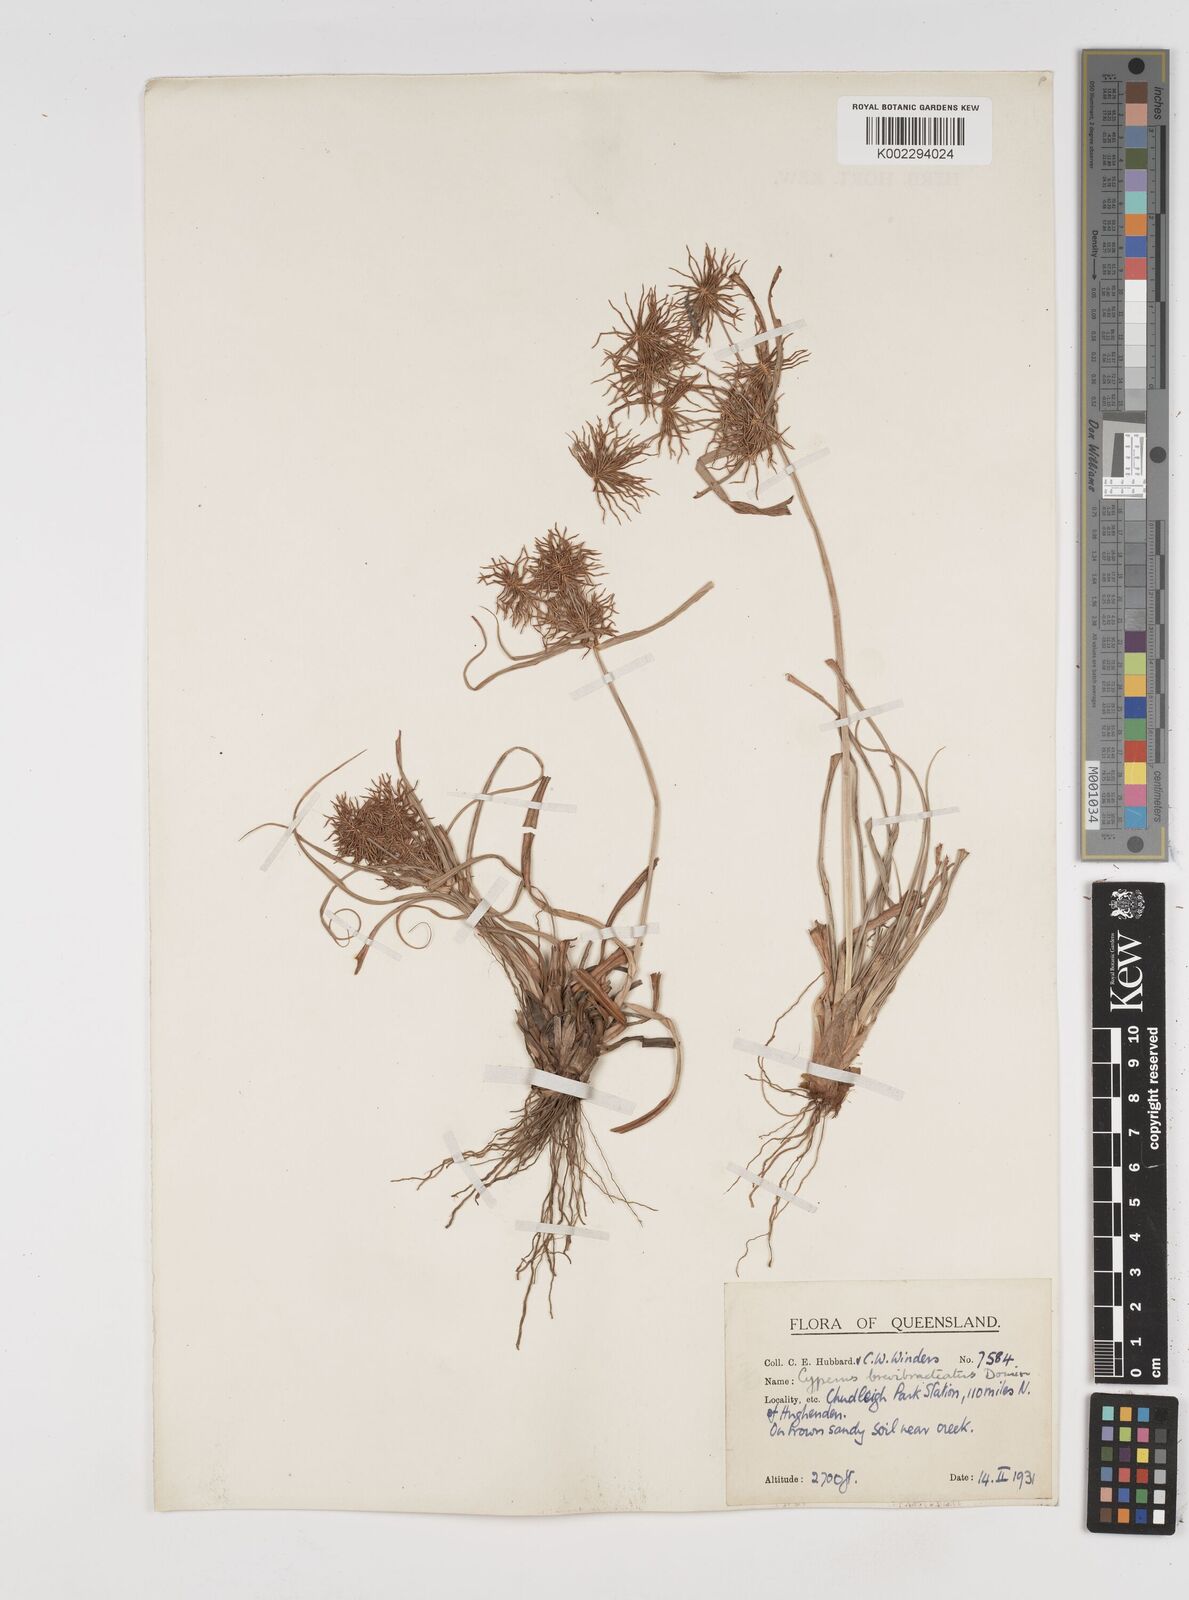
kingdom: Plantae
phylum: Tracheophyta
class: Liliopsida
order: Poales
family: Cyperaceae
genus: Cyperus
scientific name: Cyperus dietrichiae
